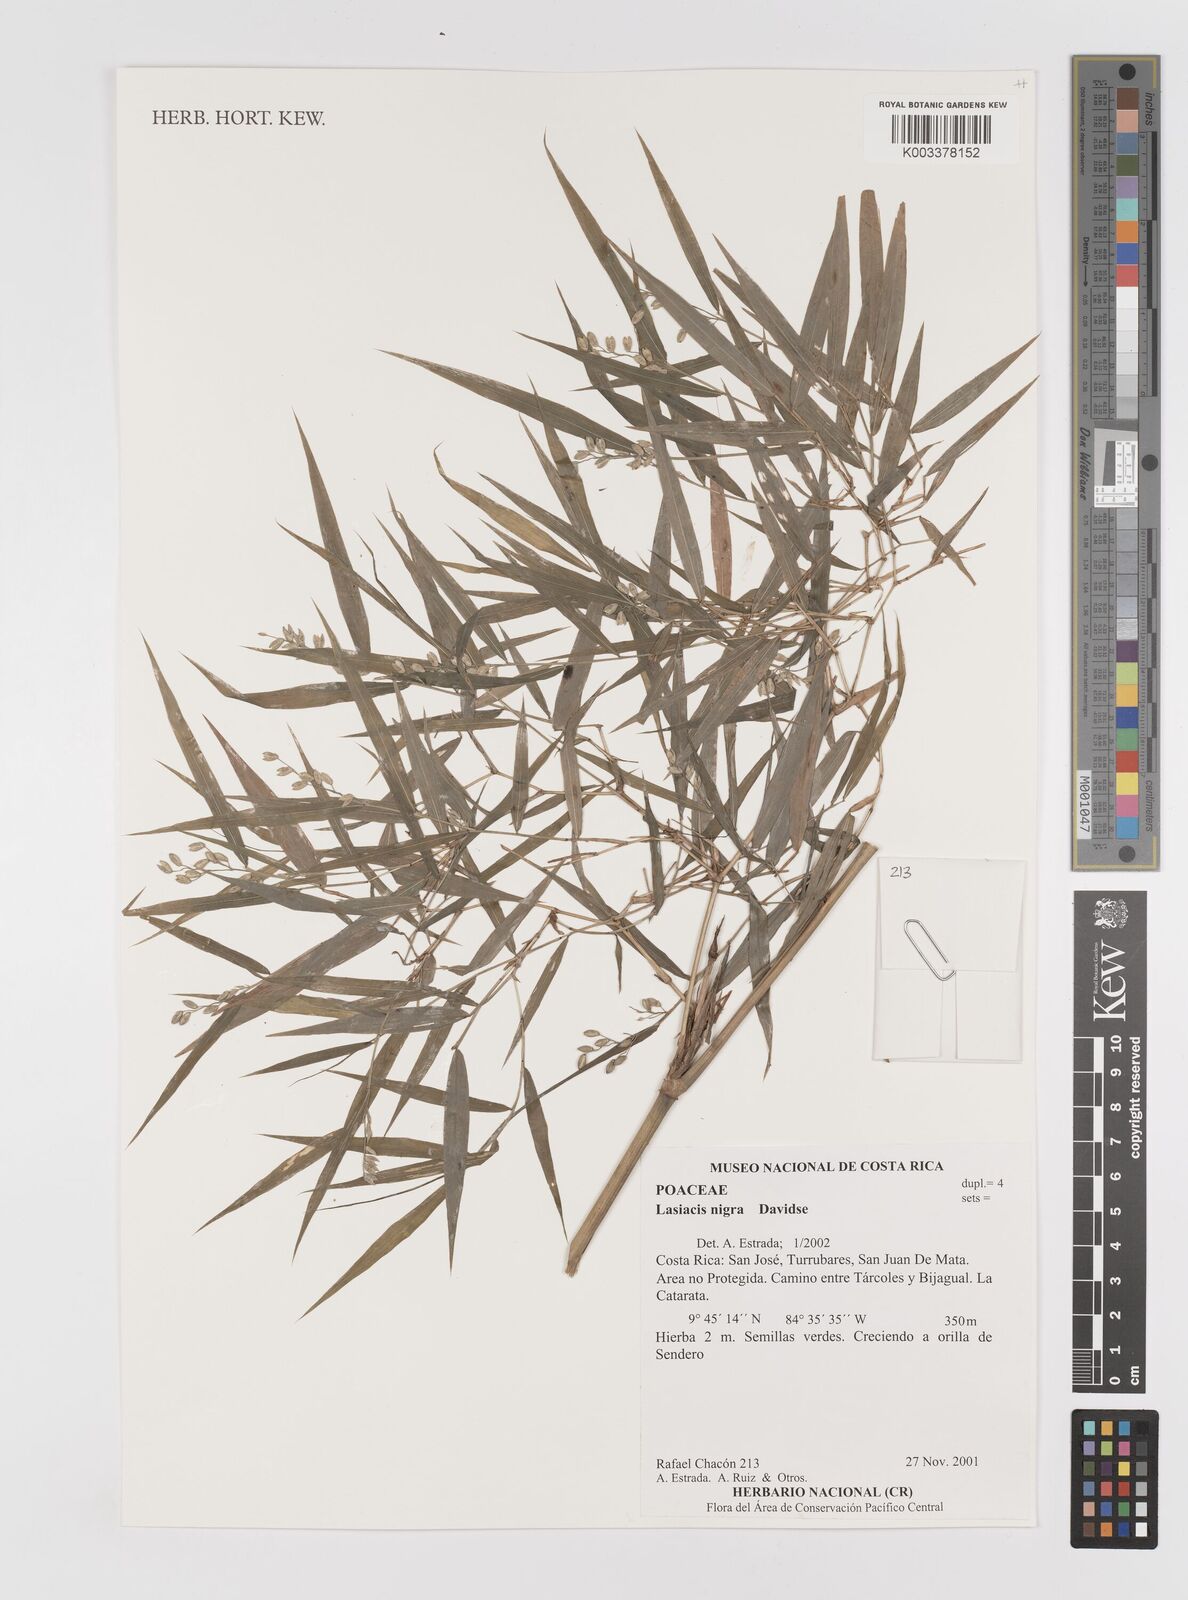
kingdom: Plantae
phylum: Tracheophyta
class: Liliopsida
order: Poales
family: Poaceae
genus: Lasiacis
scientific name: Lasiacis nigra
